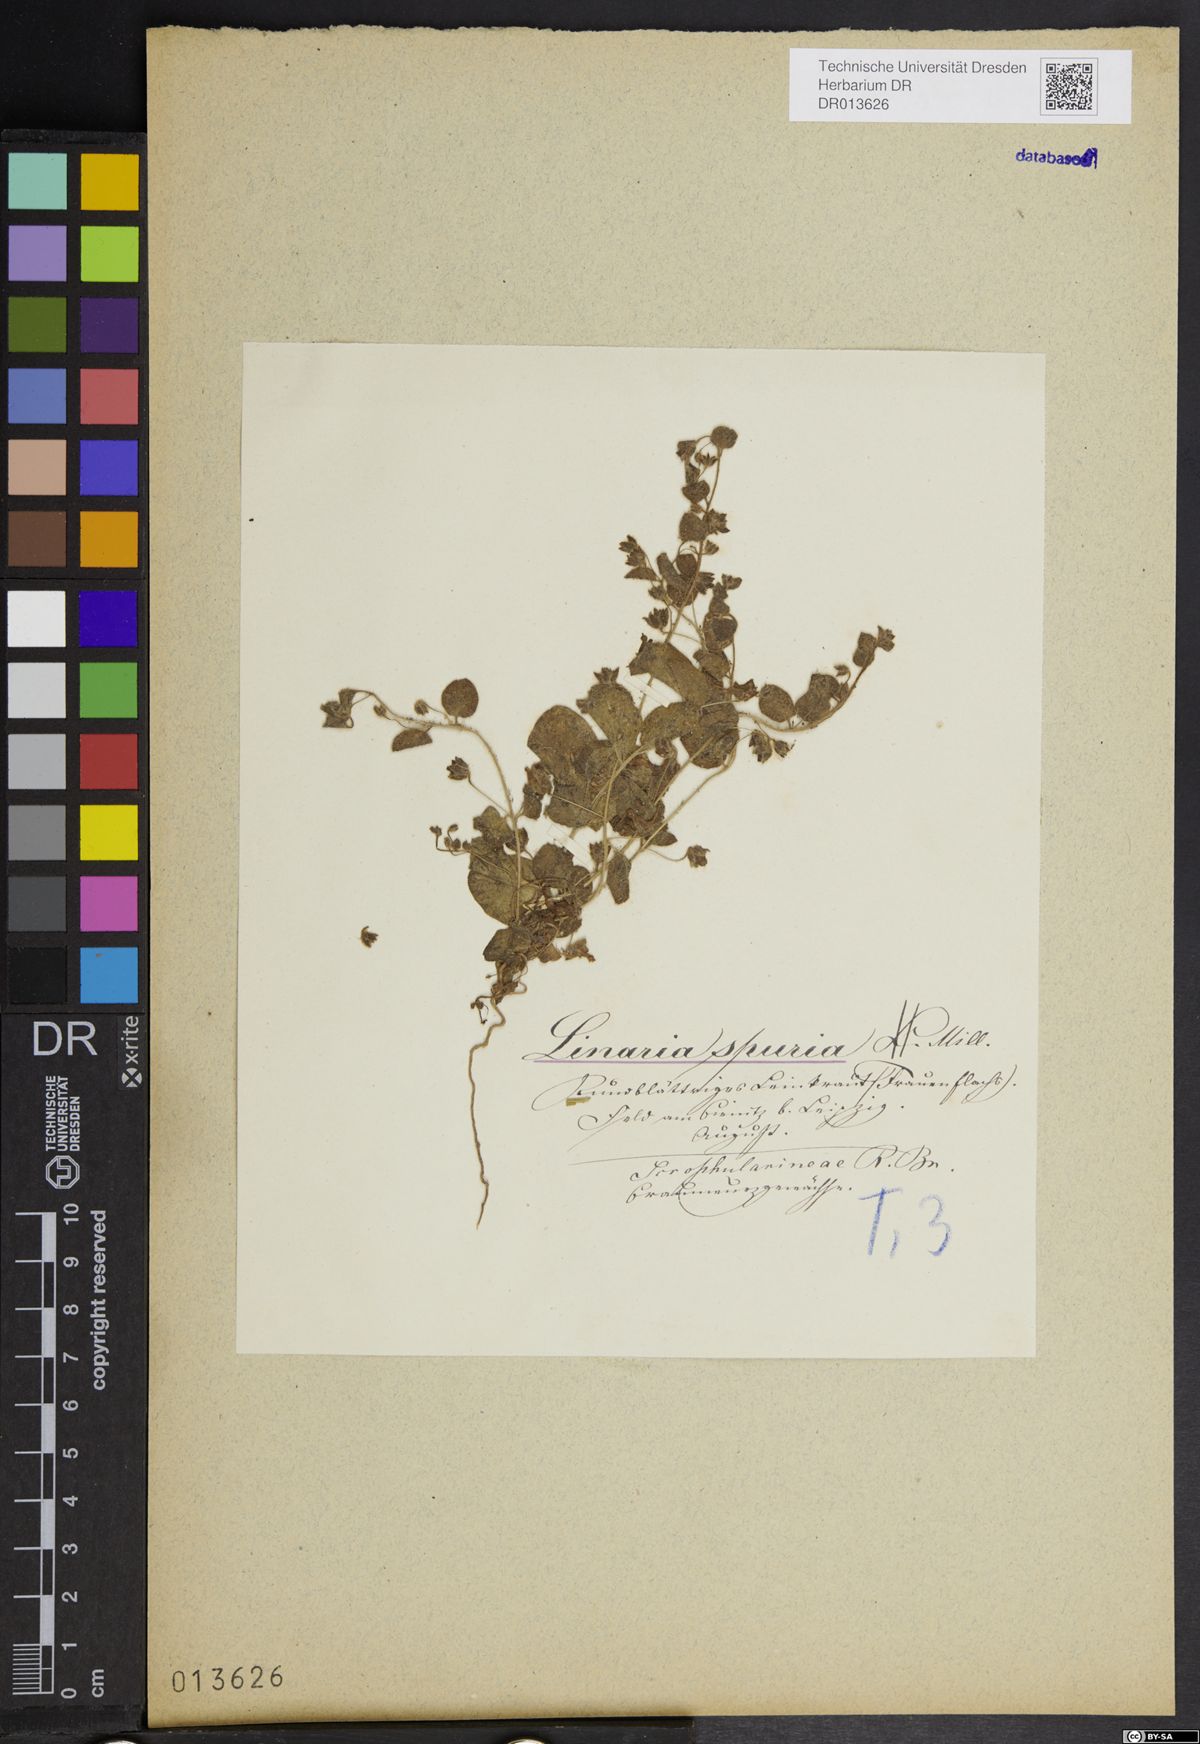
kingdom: Plantae
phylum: Tracheophyta
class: Magnoliopsida
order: Lamiales
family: Plantaginaceae
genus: Kickxia
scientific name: Kickxia spuria
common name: Round-leaved fluellen
